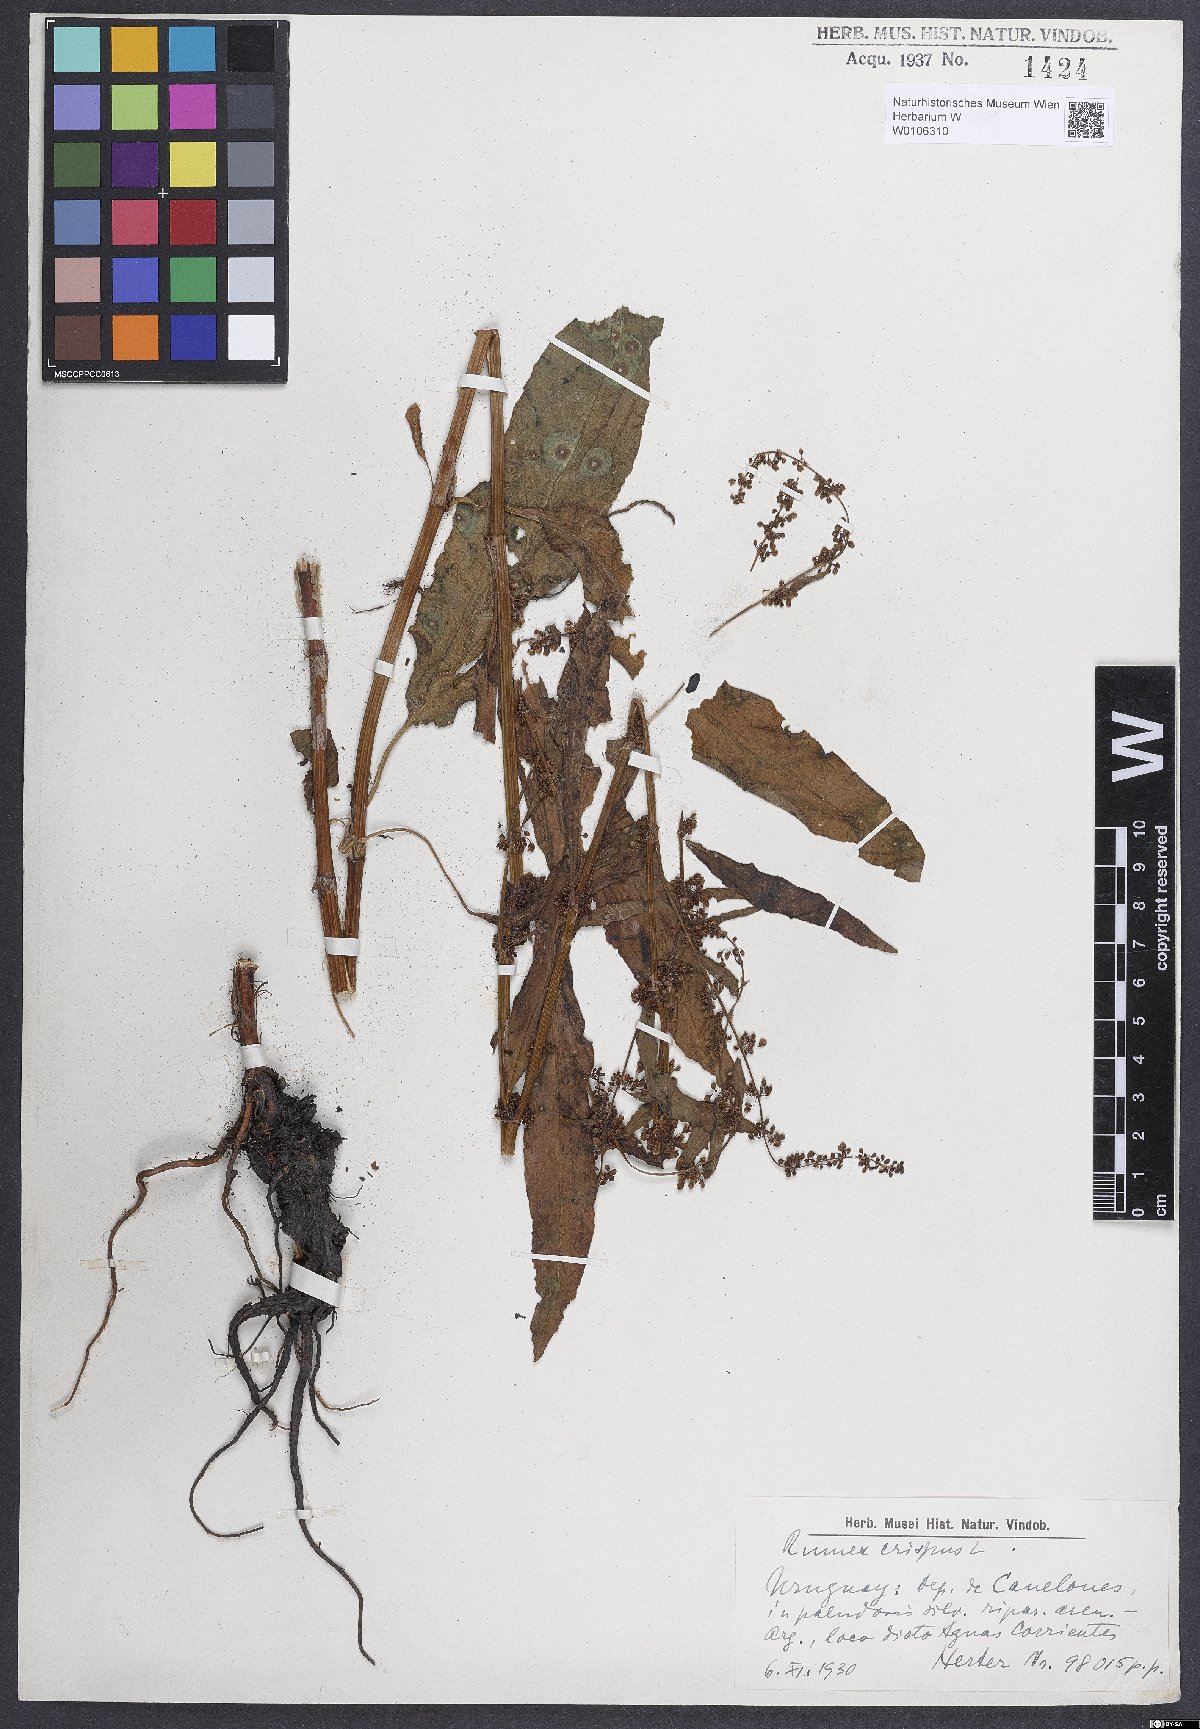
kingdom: Plantae
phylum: Tracheophyta
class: Magnoliopsida
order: Caryophyllales
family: Polygonaceae
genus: Rumex
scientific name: Rumex crispus
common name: Curled dock
